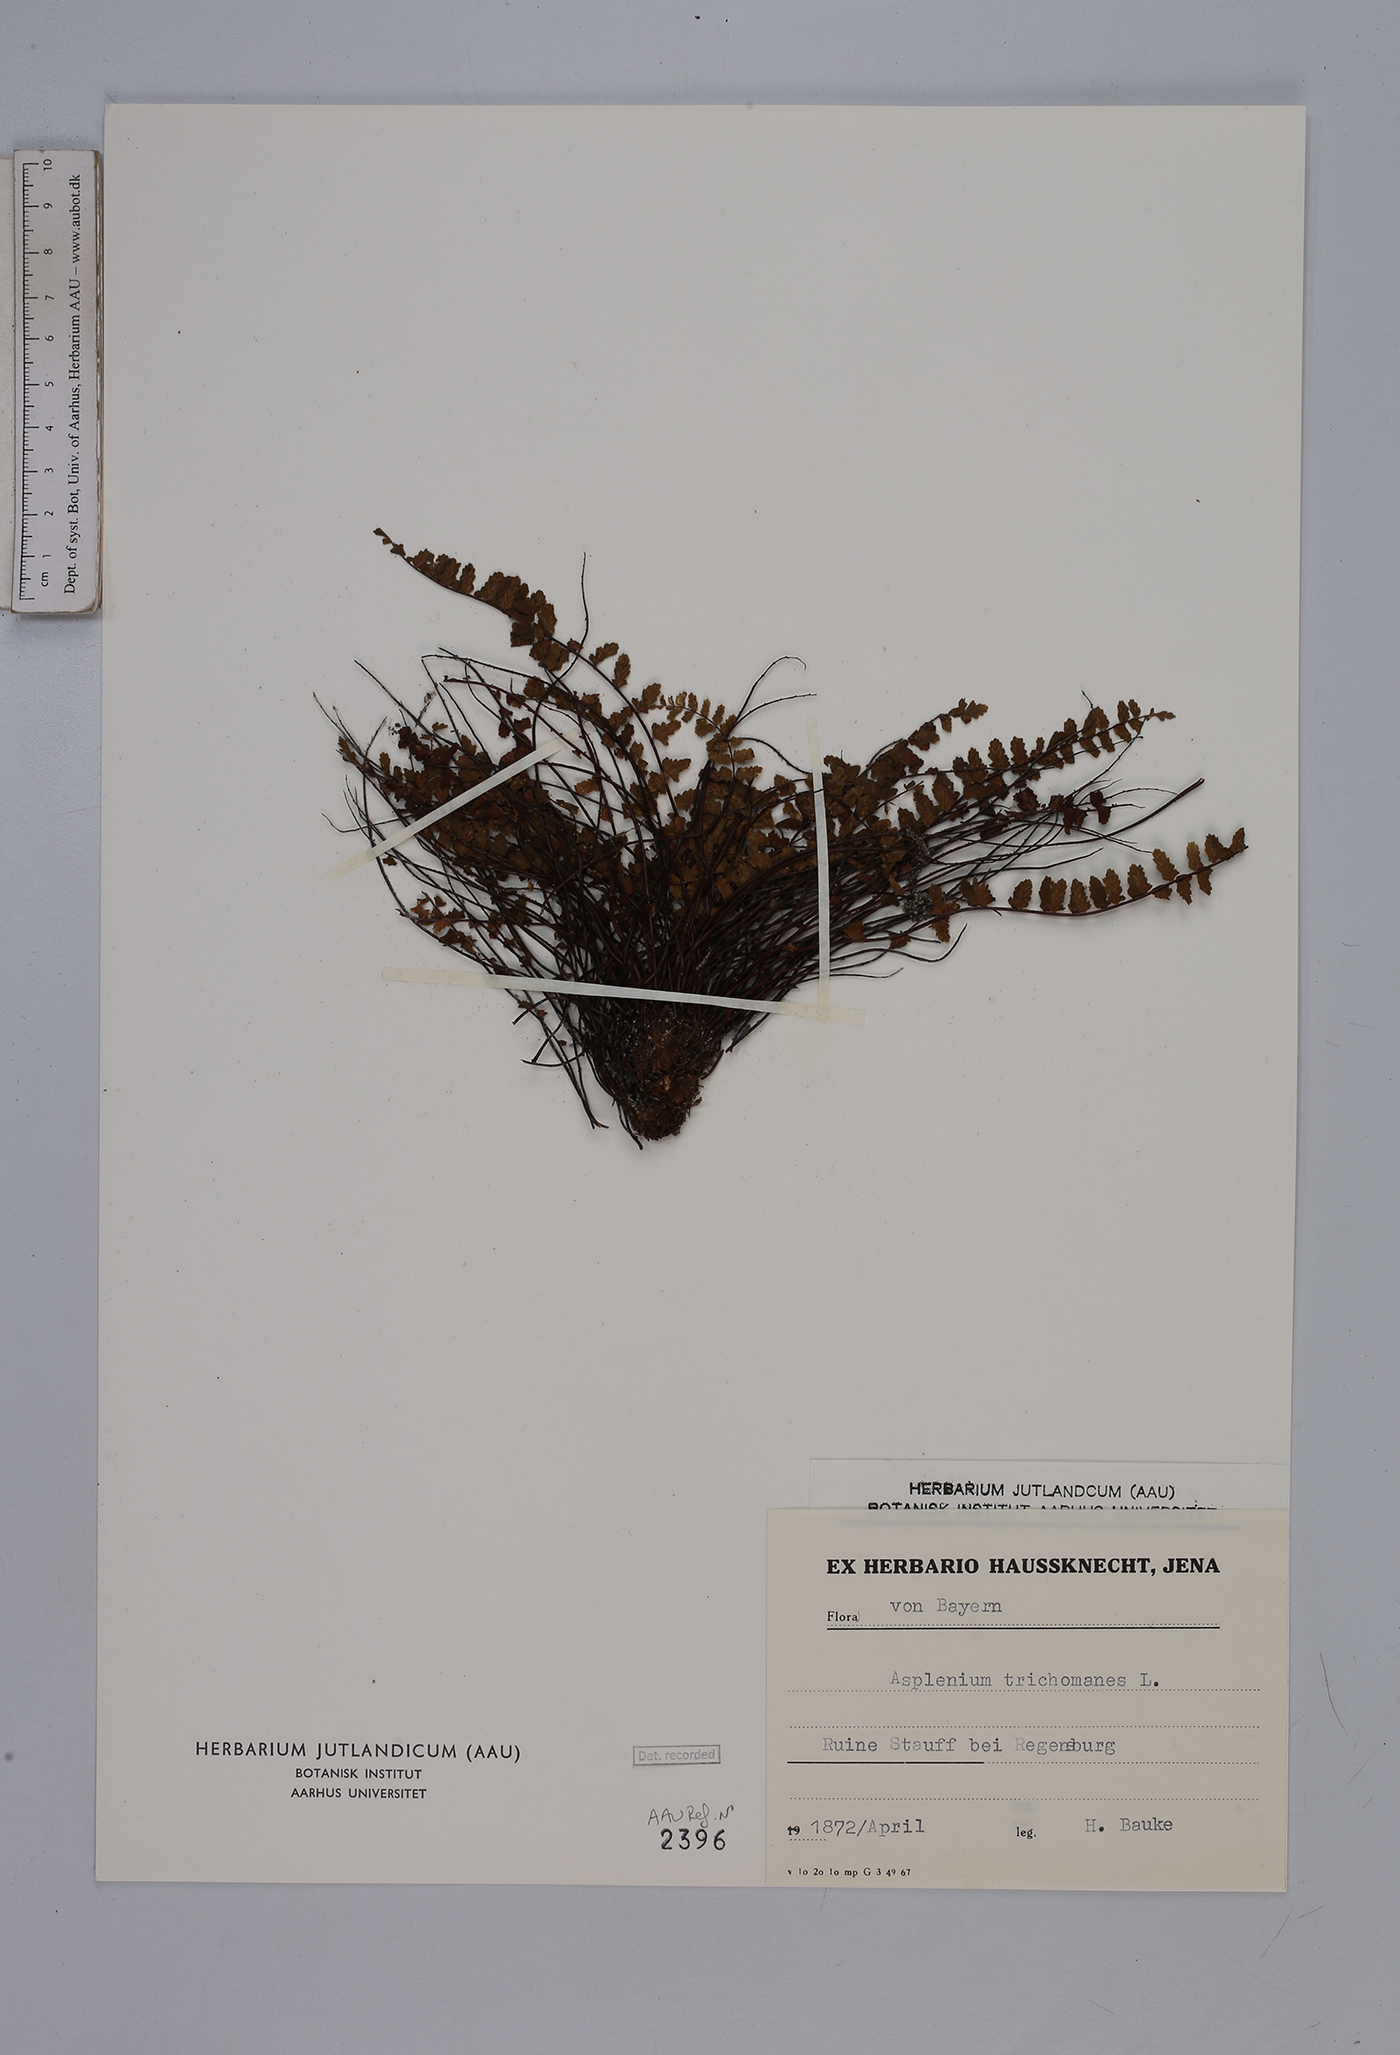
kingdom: Plantae
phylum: Tracheophyta
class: Polypodiopsida
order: Polypodiales
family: Aspleniaceae
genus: Asplenium
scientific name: Asplenium trichomanes
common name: Maidenhair spleenwort
